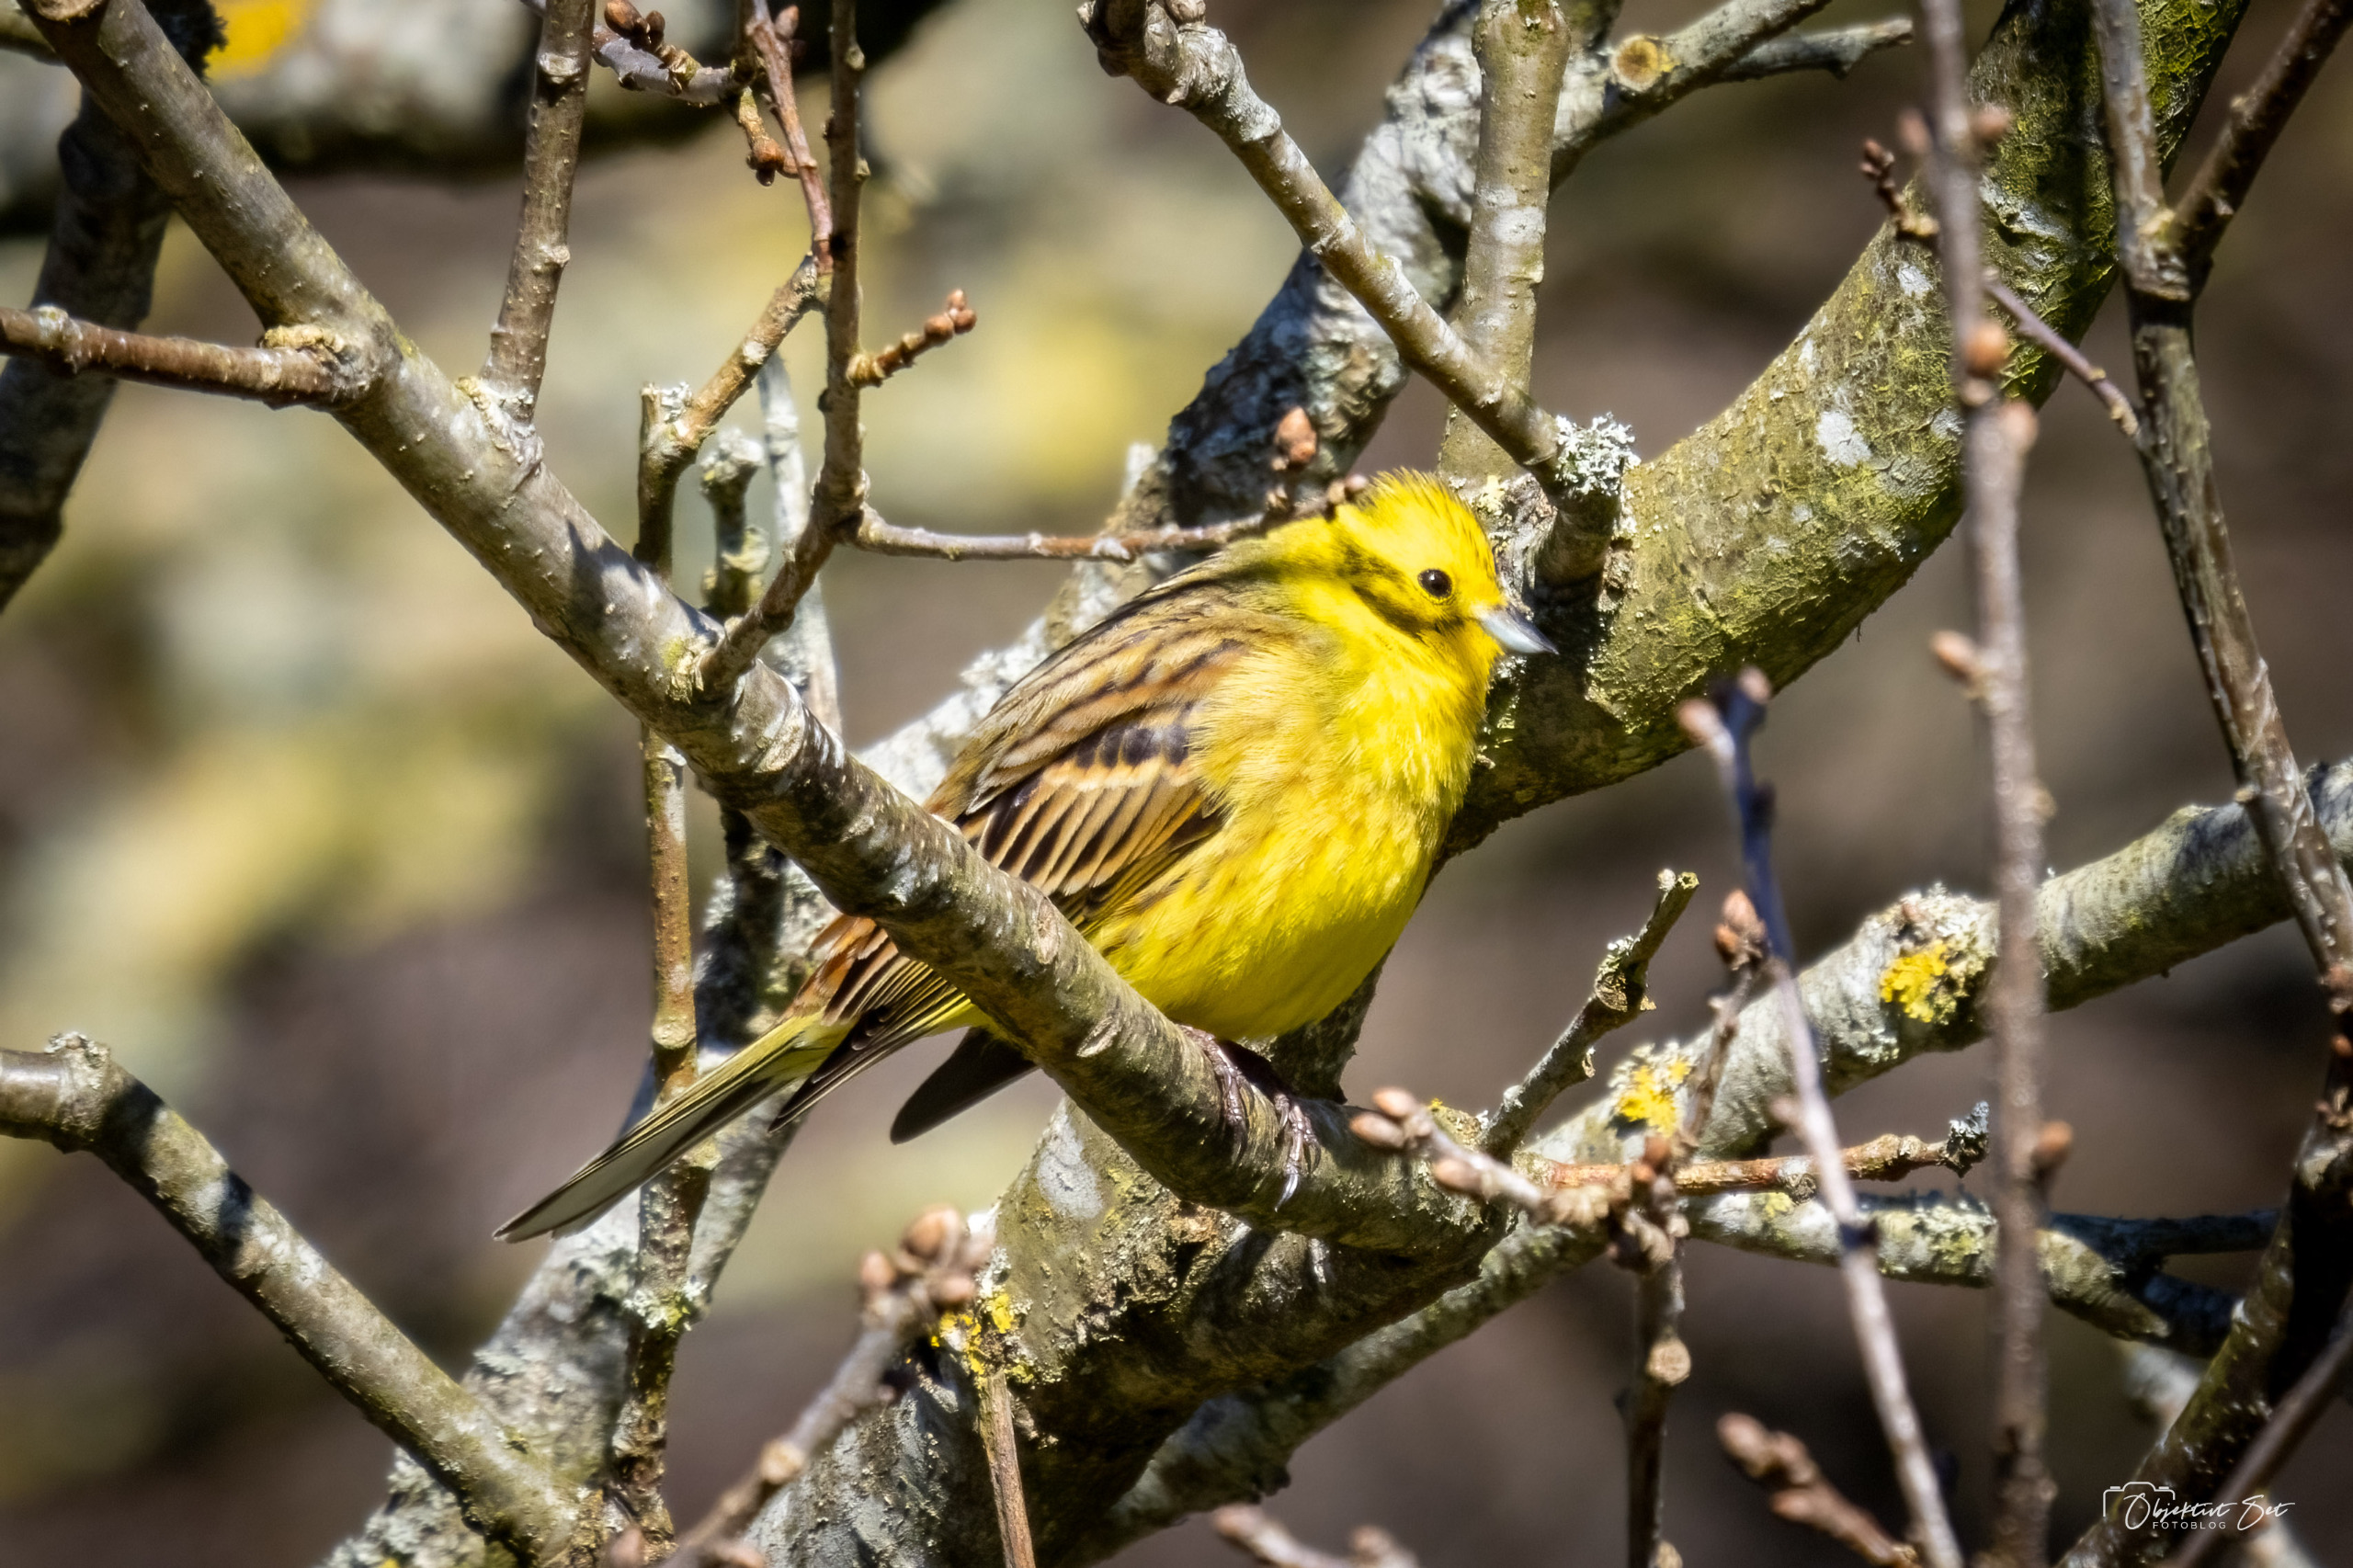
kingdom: Animalia
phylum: Chordata
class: Aves
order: Passeriformes
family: Emberizidae
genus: Emberiza
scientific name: Emberiza citrinella
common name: Gulspurv
